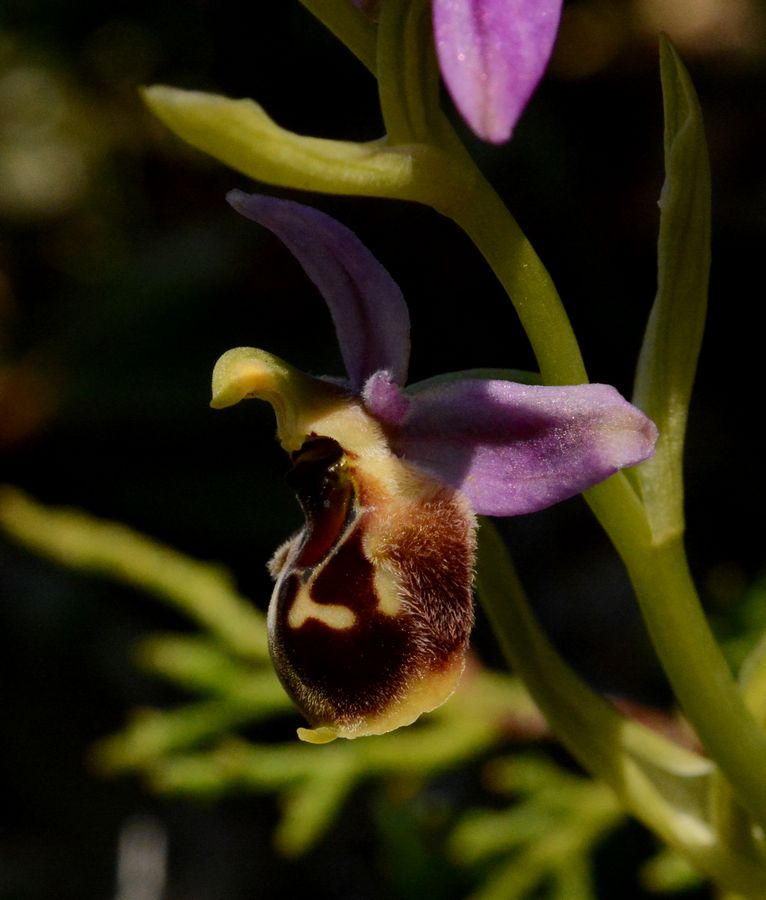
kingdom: Plantae
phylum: Tracheophyta
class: Liliopsida
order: Asparagales
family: Orchidaceae
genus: Ophrys
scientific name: Ophrys bornmuelleri
